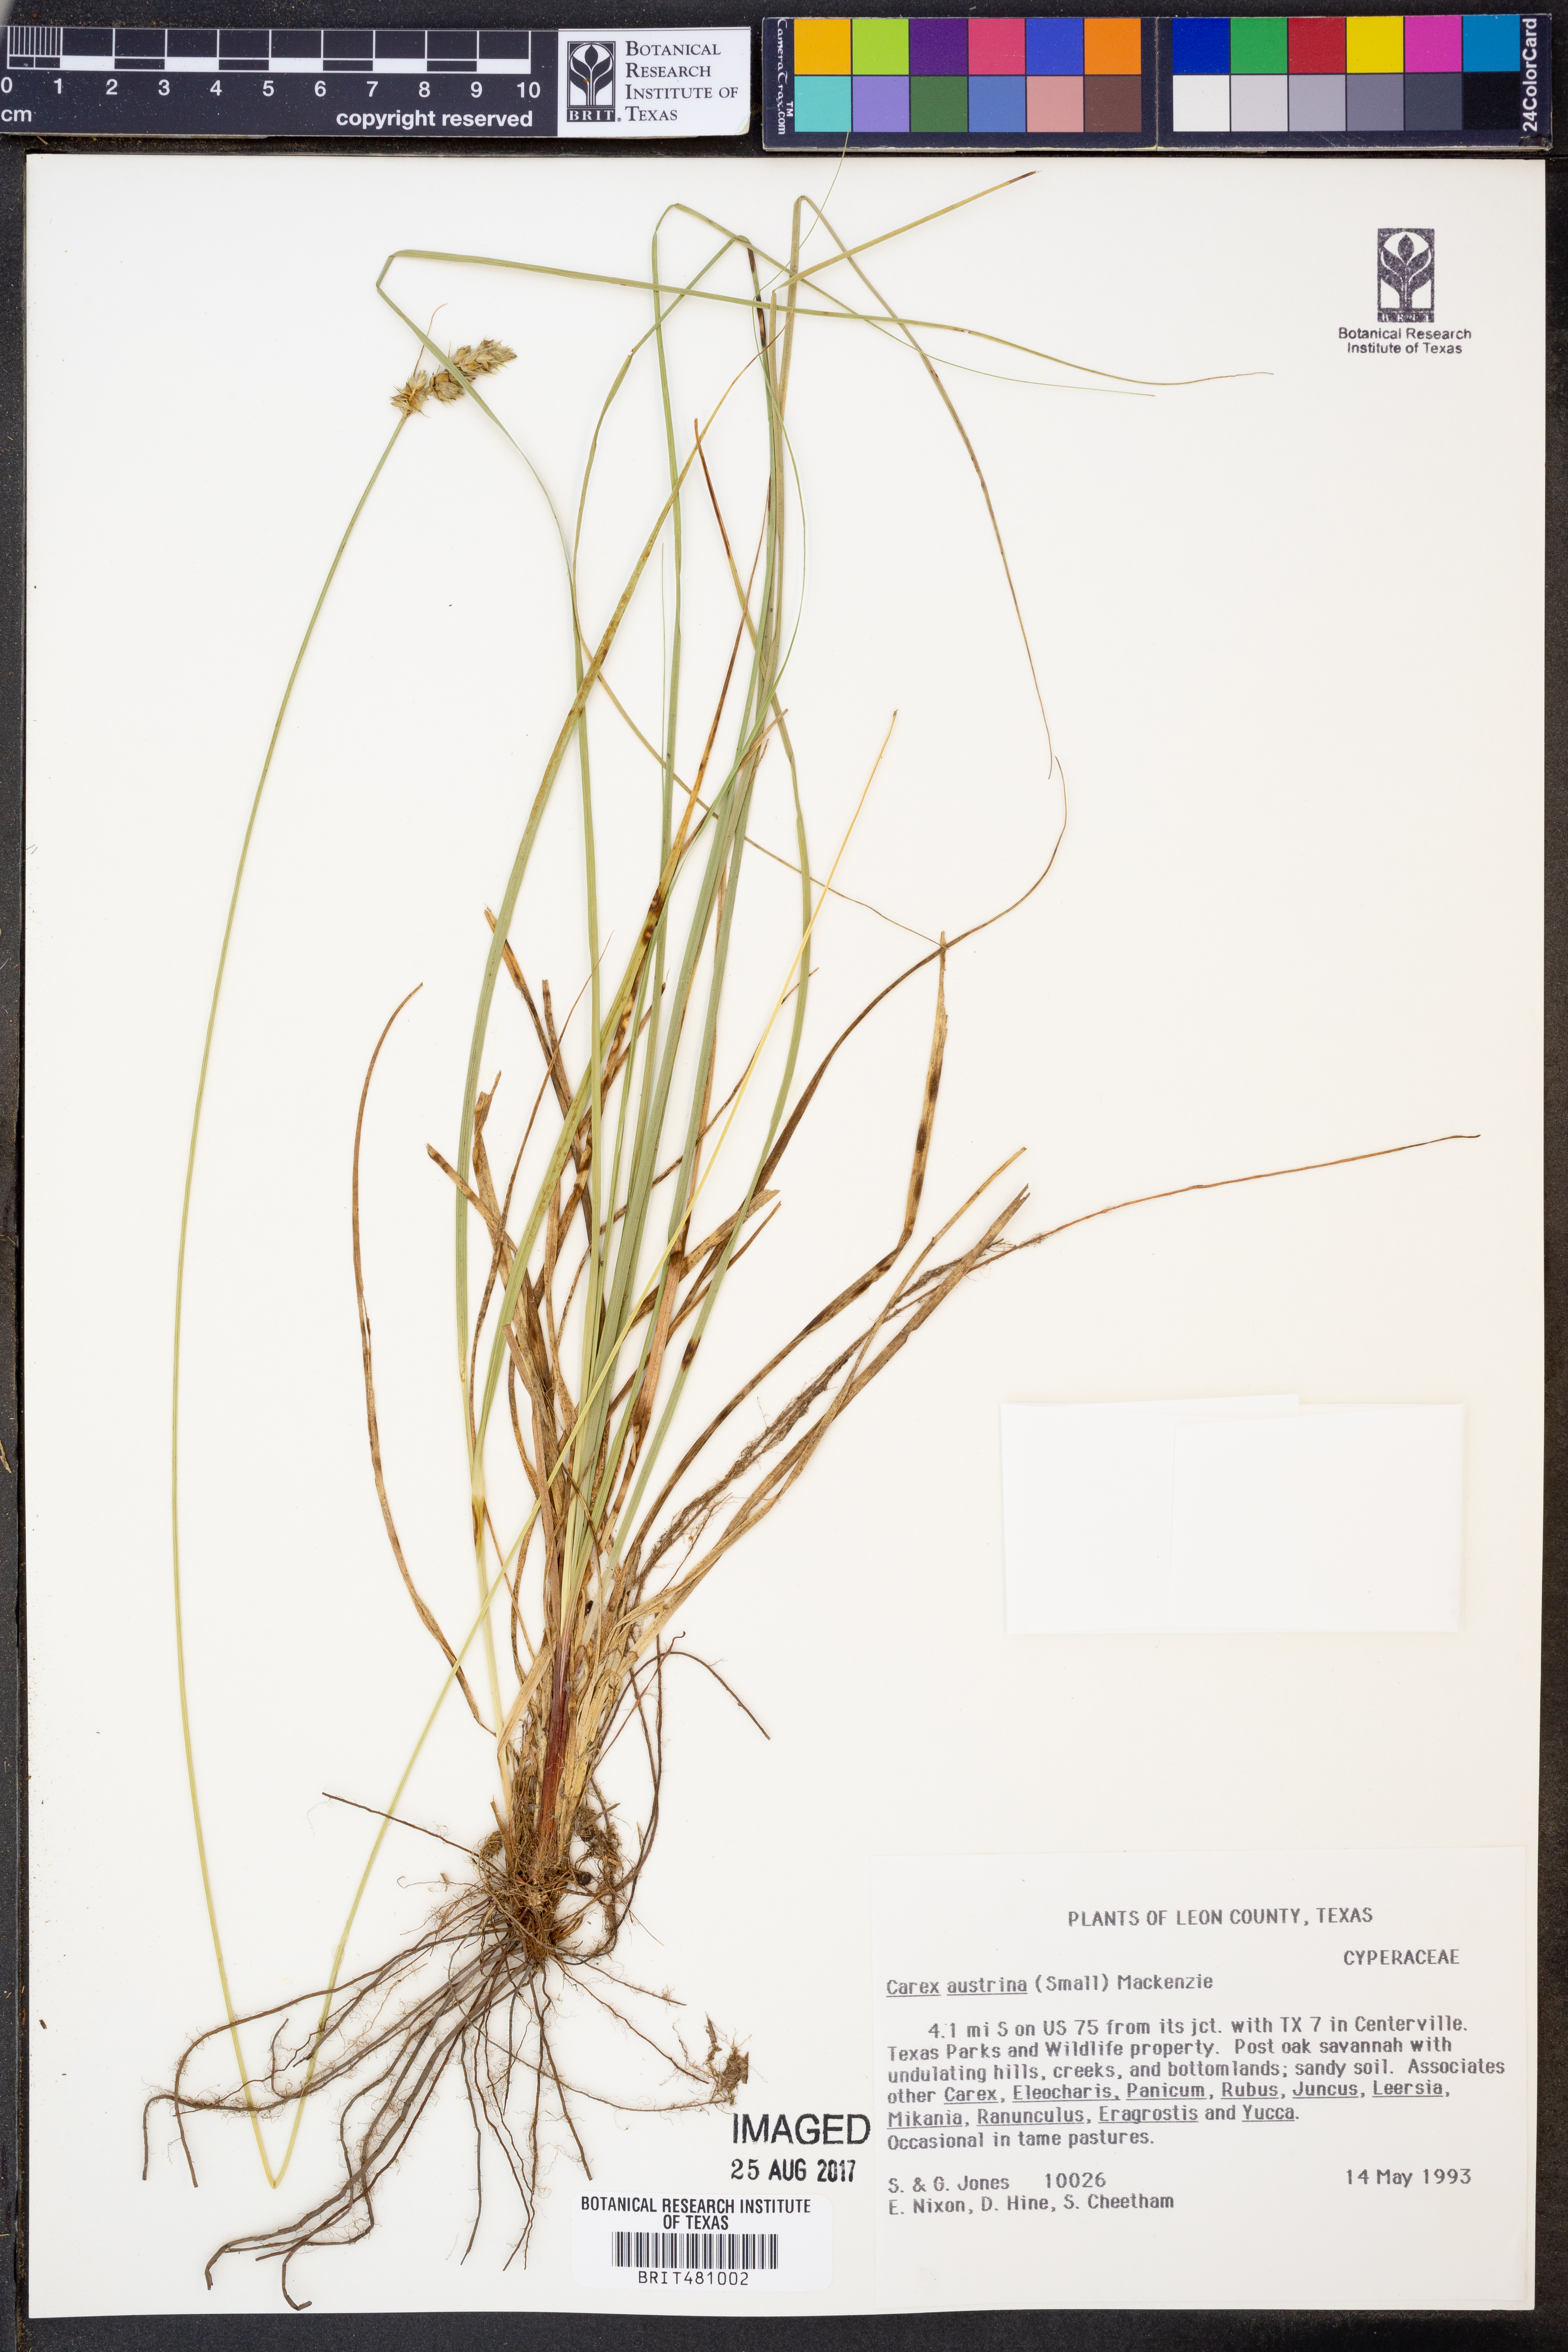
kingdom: Plantae
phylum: Tracheophyta
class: Liliopsida
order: Poales
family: Cyperaceae
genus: Carex
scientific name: Carex austrina
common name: Southern sedge
